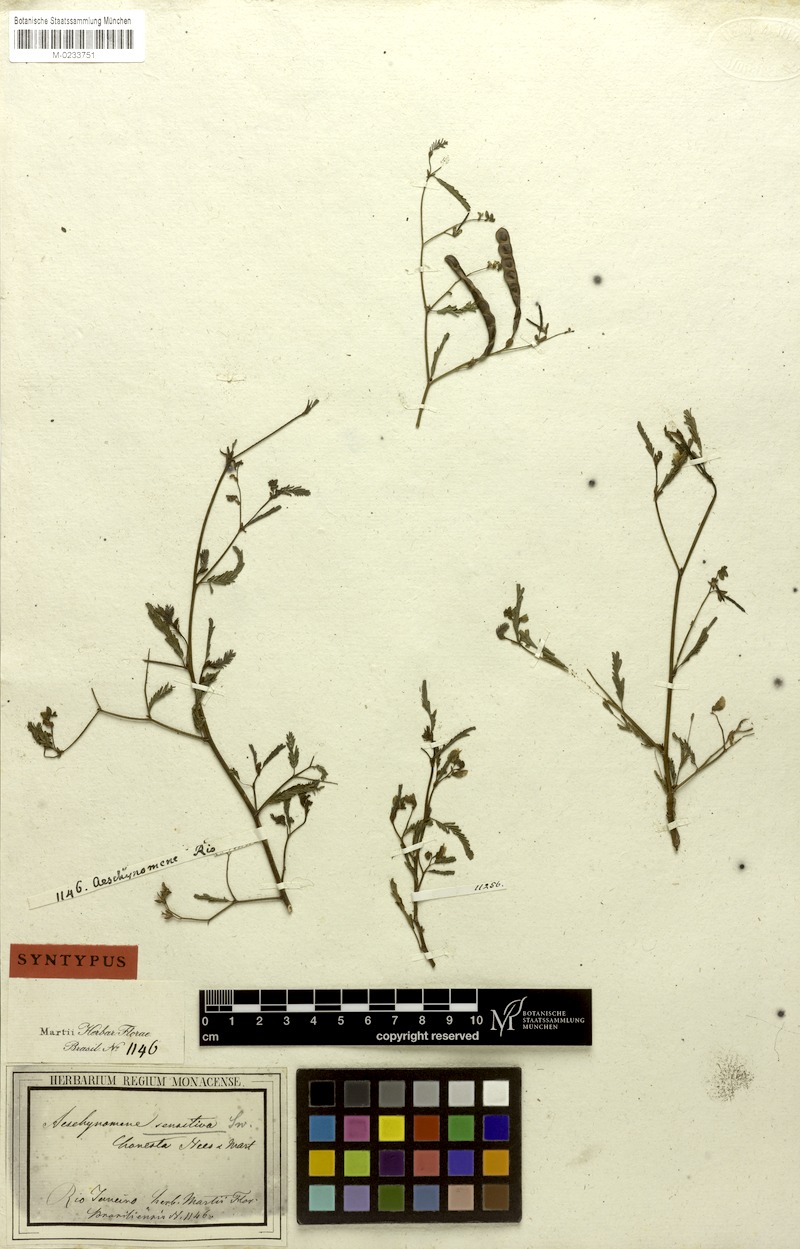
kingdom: Plantae
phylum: Tracheophyta
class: Magnoliopsida
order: Fabales
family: Fabaceae
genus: Aeschynomene
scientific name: Aeschynomene sensitiva
